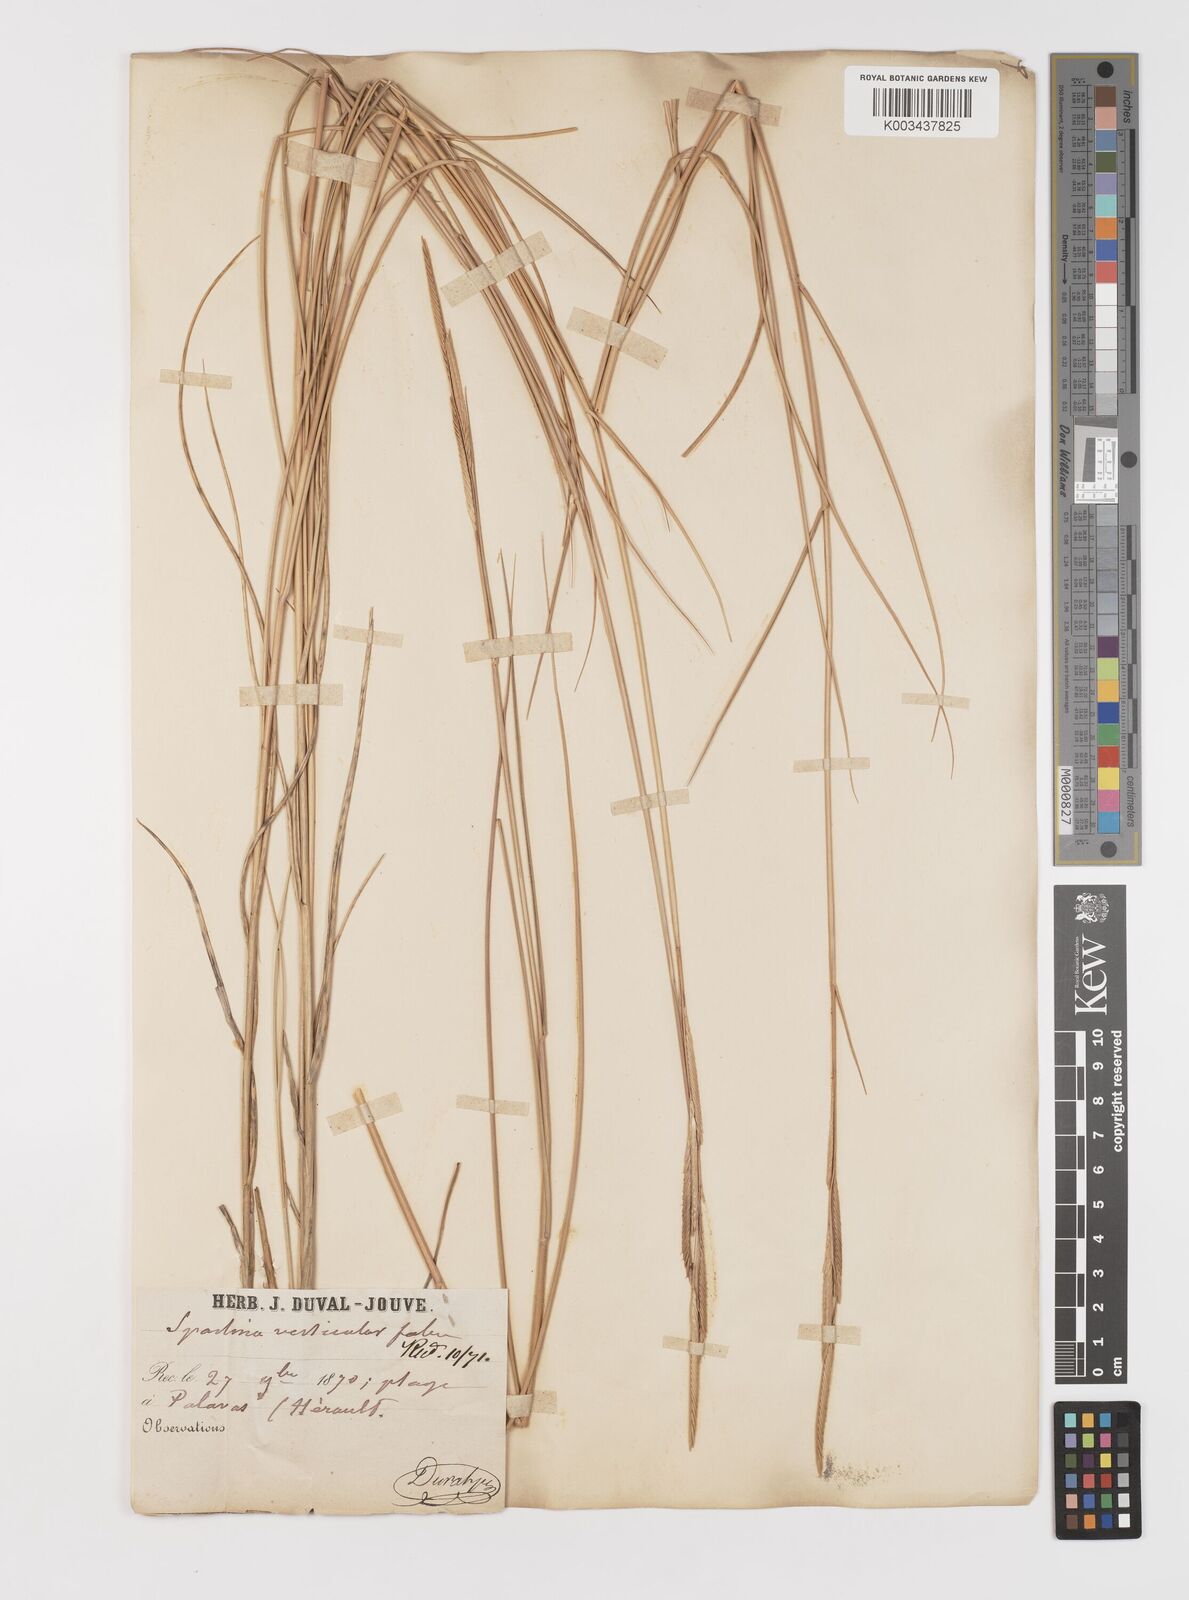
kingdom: Plantae
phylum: Tracheophyta
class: Liliopsida
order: Poales
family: Poaceae
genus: Sporobolus
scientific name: Sporobolus versicolor
